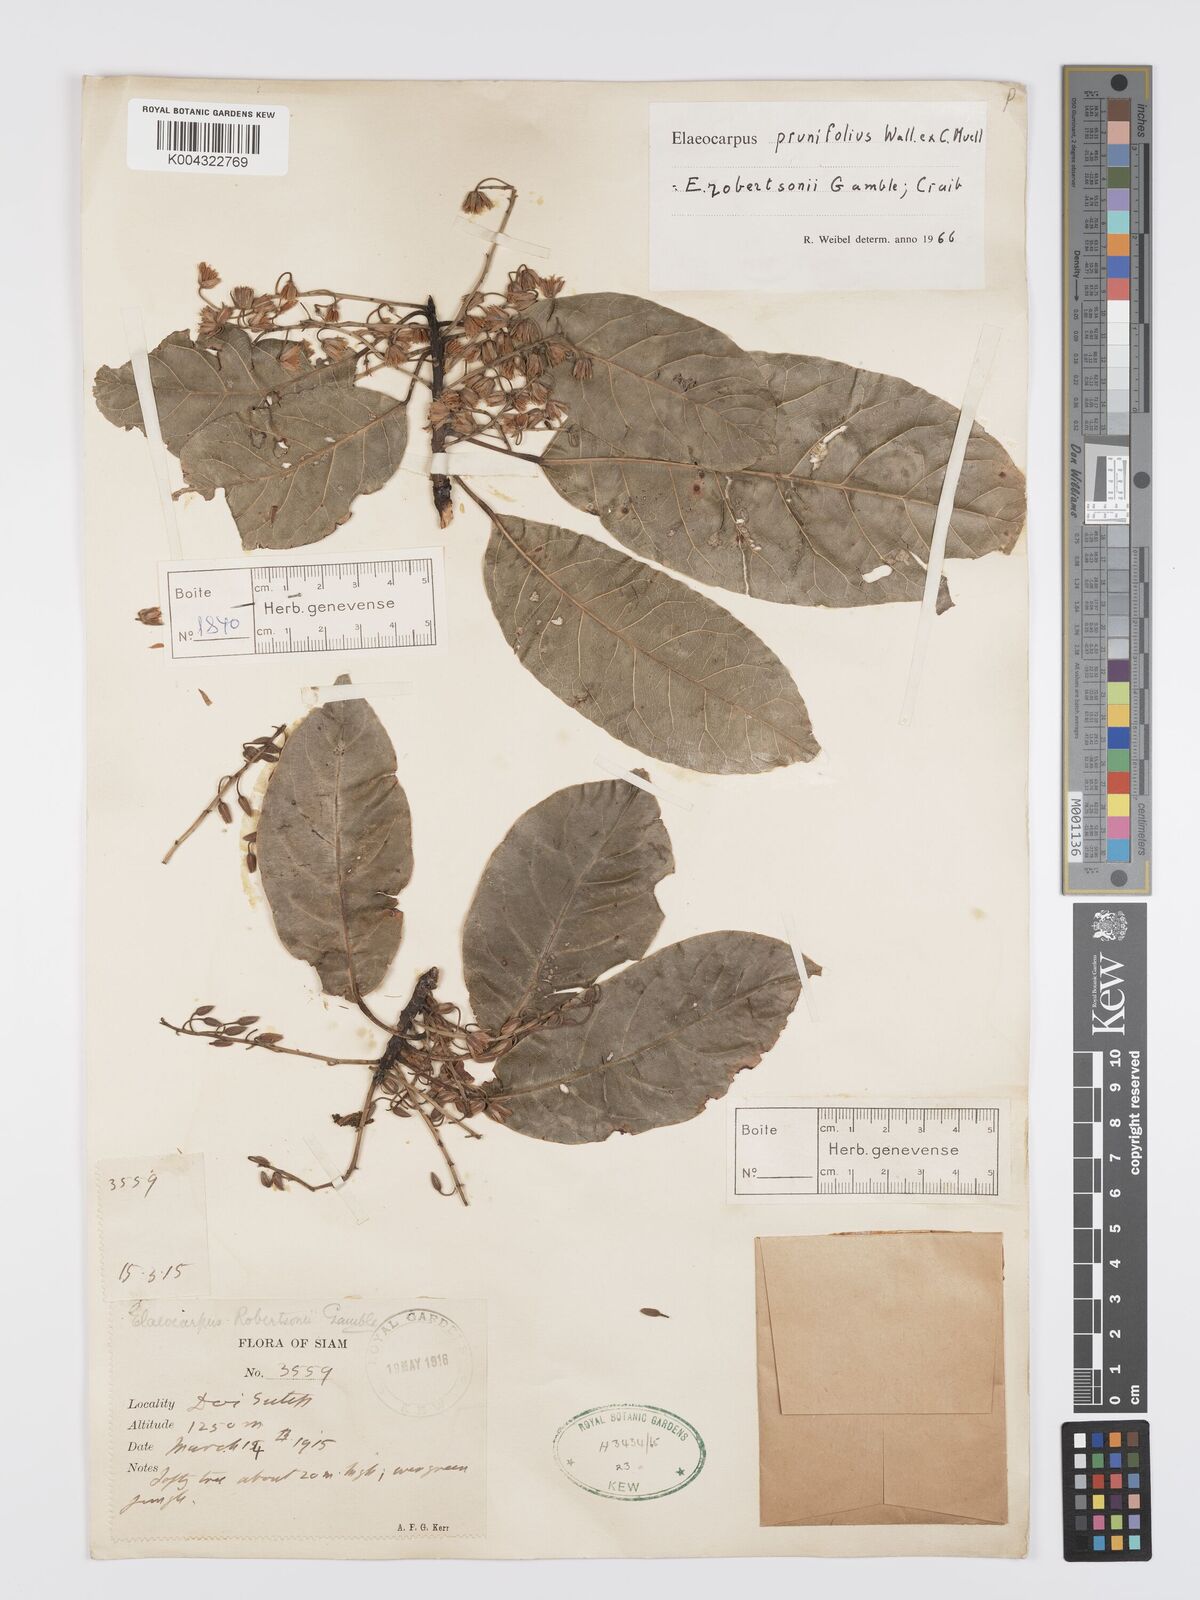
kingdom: Plantae
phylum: Tracheophyta
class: Magnoliopsida
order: Oxalidales
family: Elaeocarpaceae
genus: Elaeocarpus
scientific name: Elaeocarpus
